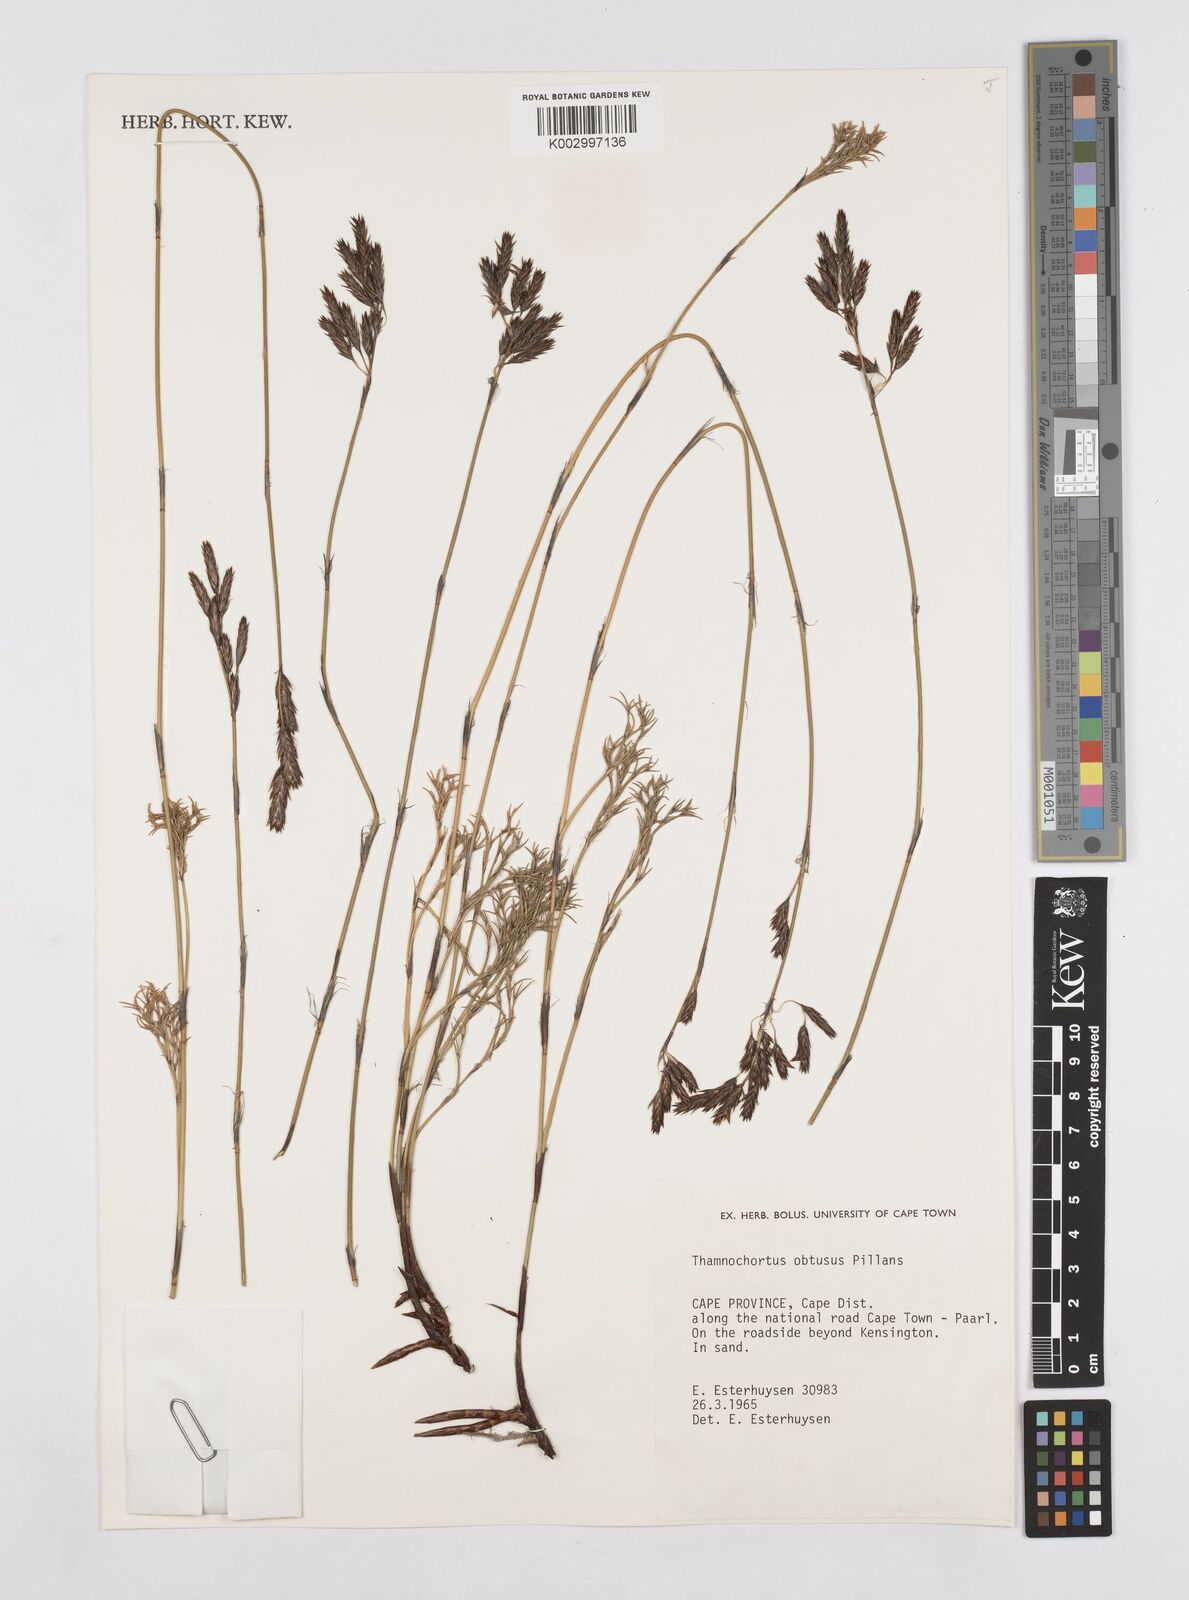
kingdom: Plantae
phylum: Tracheophyta
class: Liliopsida
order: Poales
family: Restionaceae
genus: Thamnochortus
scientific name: Thamnochortus obtusus
